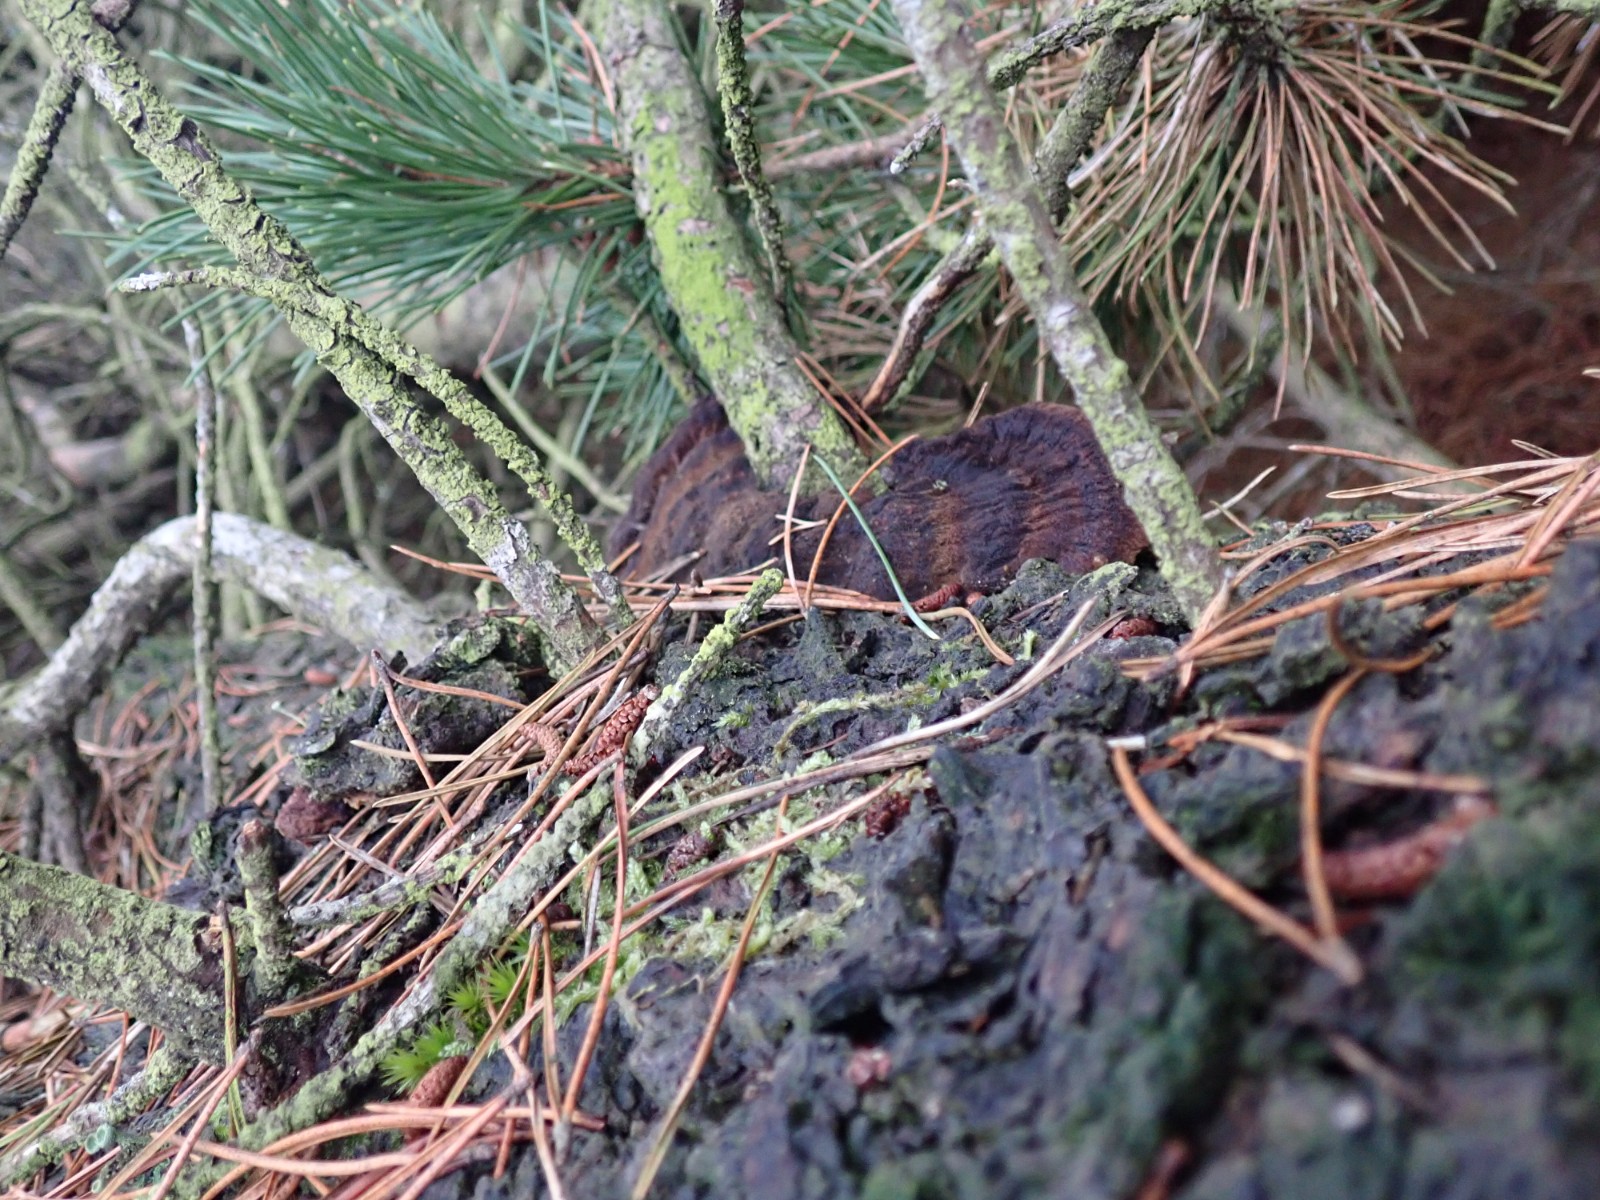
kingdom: Fungi
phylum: Basidiomycota
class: Agaricomycetes
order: Polyporales
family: Ischnodermataceae
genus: Ischnoderma
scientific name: Ischnoderma benzoinum
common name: gran-tjæreporesvamp
